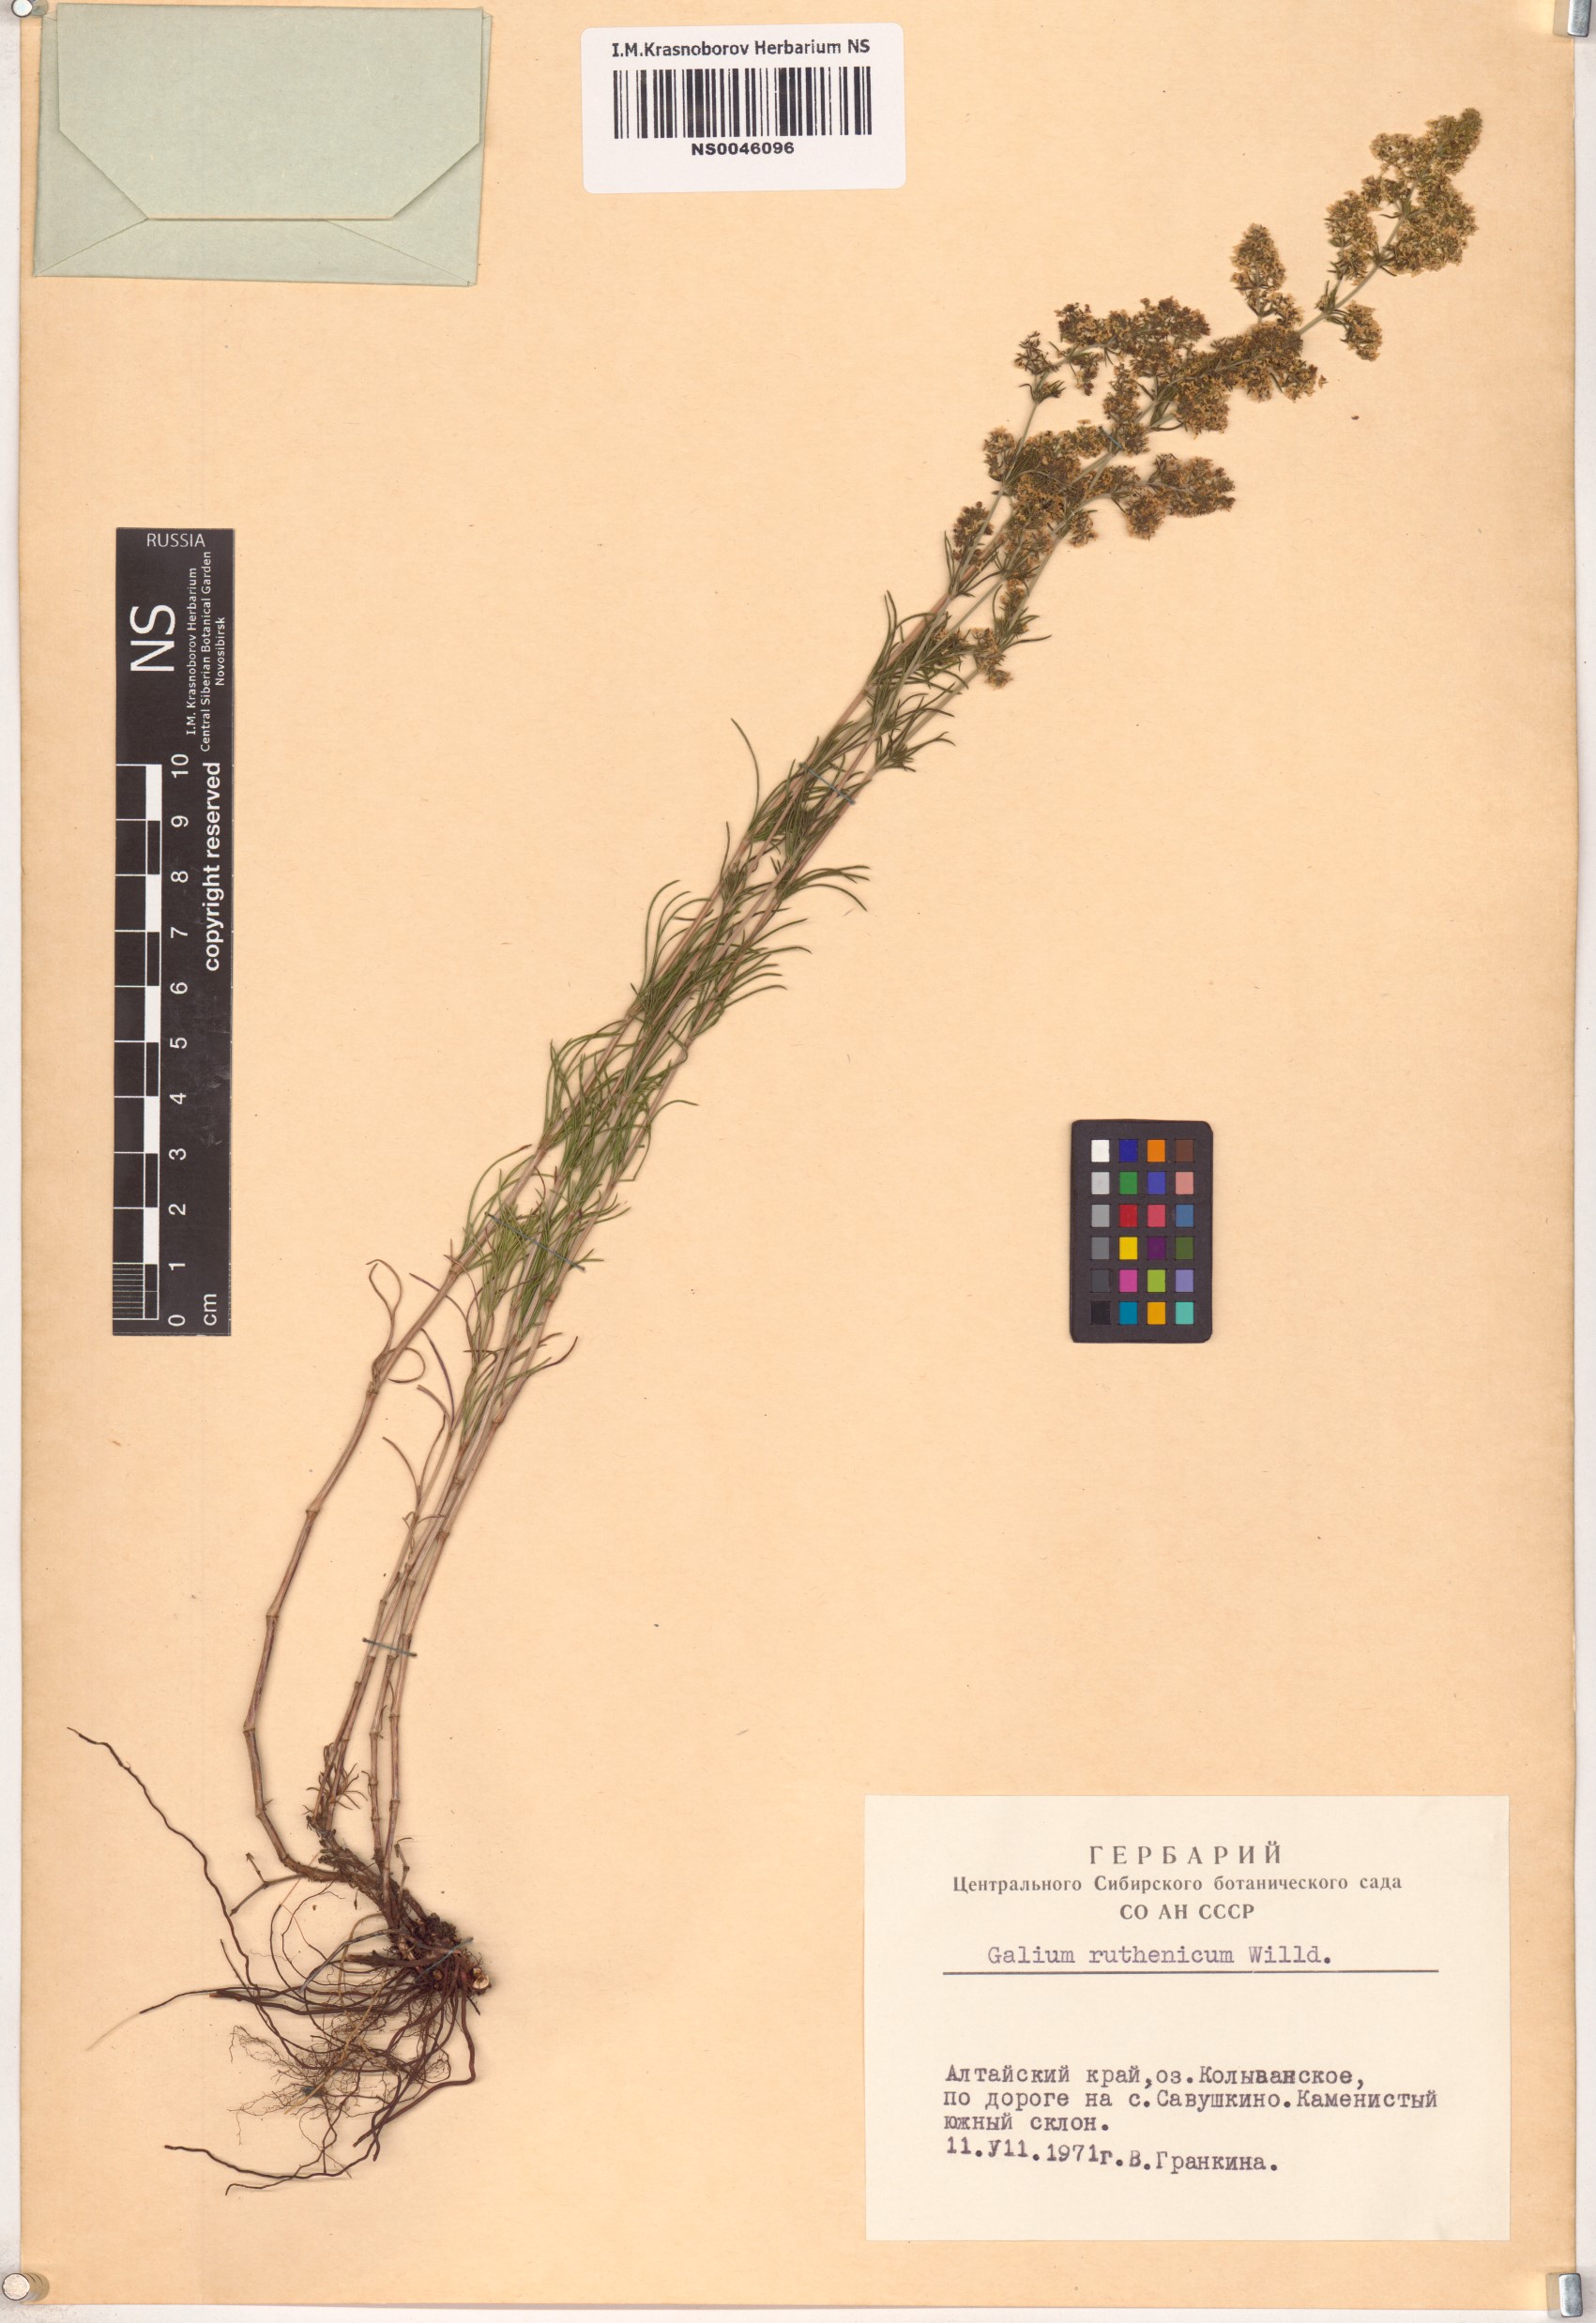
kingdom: Plantae
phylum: Tracheophyta
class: Magnoliopsida
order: Gentianales
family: Rubiaceae
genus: Galium
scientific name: Galium verum
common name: Lady's bedstraw
